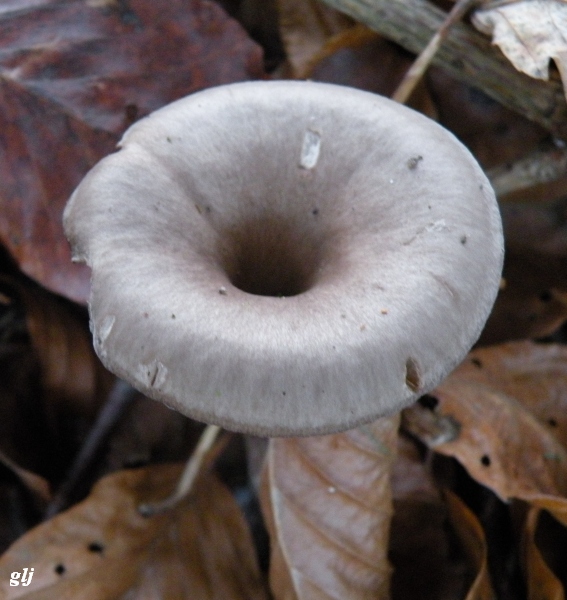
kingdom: Fungi
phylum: Basidiomycota
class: Agaricomycetes
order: Agaricales
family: Pseudoclitocybaceae
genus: Pseudoclitocybe
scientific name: Pseudoclitocybe cyathiformis
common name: almindelig bægertragthat
